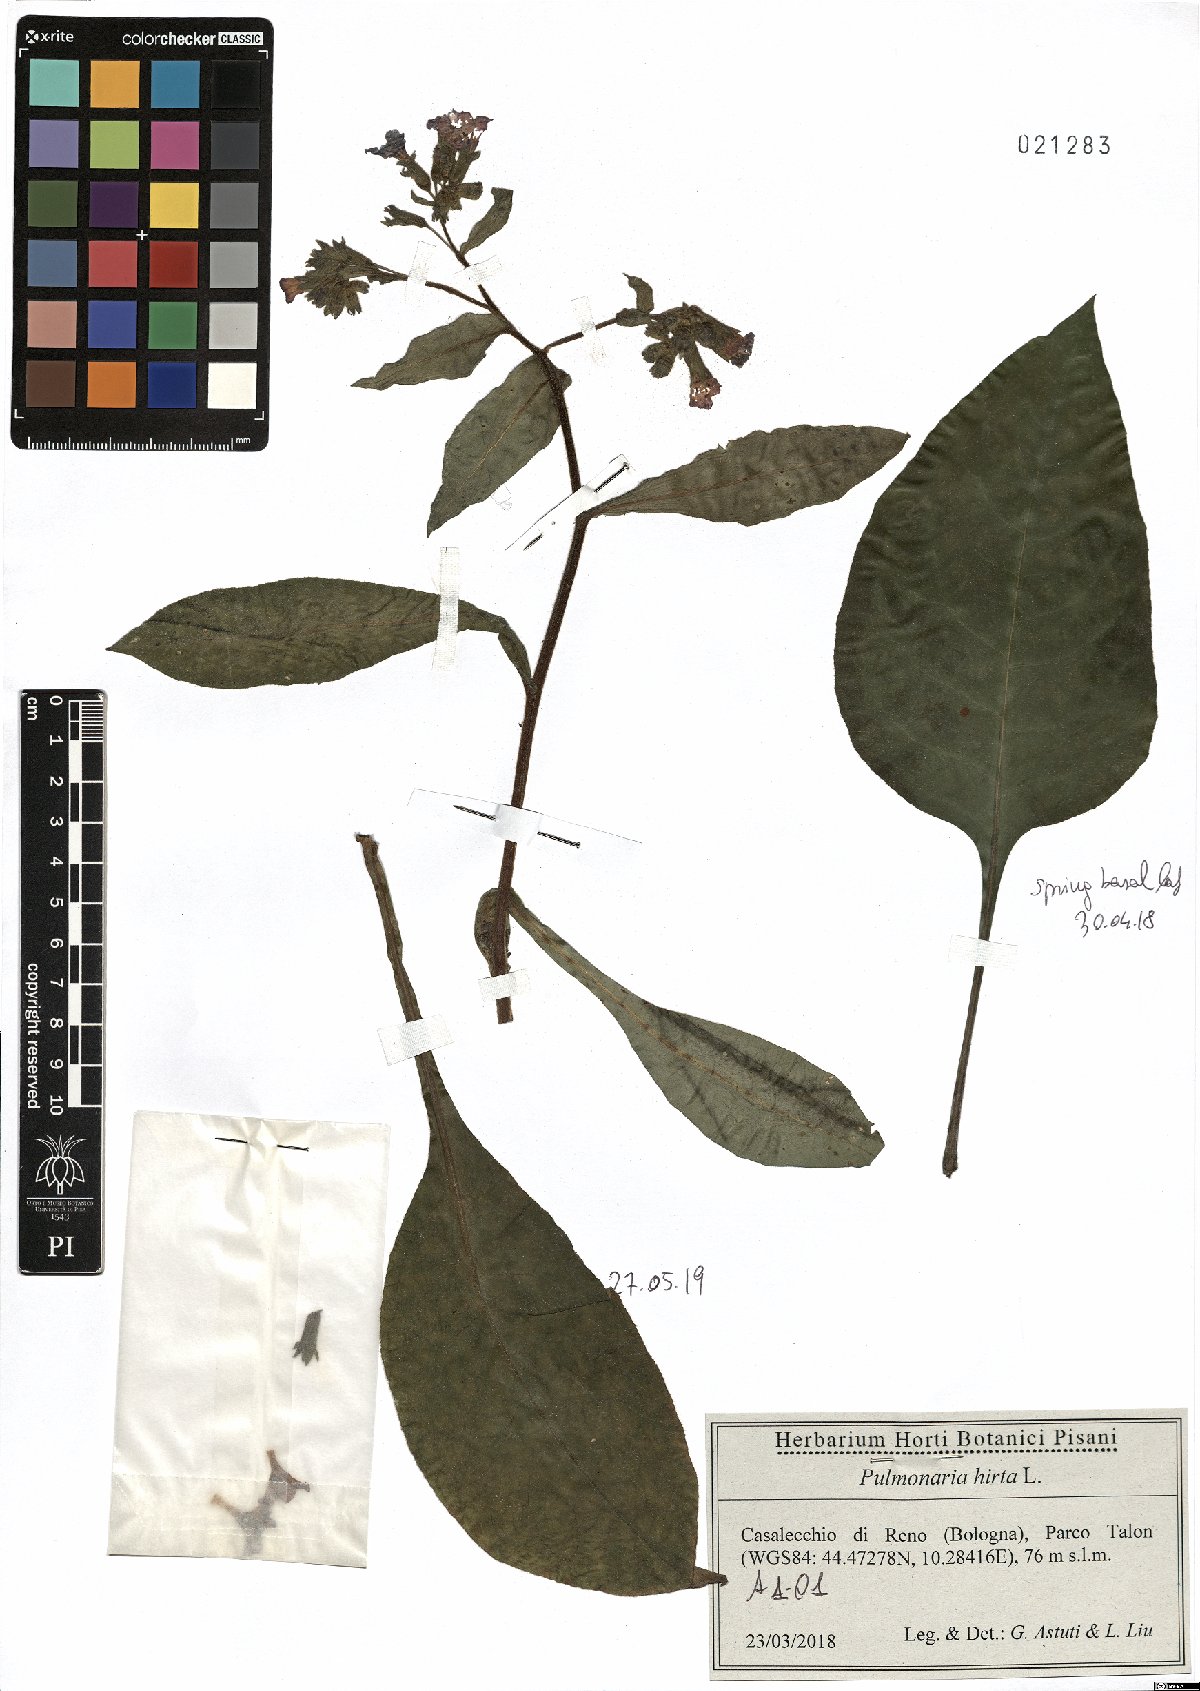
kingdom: Plantae
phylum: Tracheophyta
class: Magnoliopsida
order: Boraginales
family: Boraginaceae
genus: Pulmonaria
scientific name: Pulmonaria hirta
